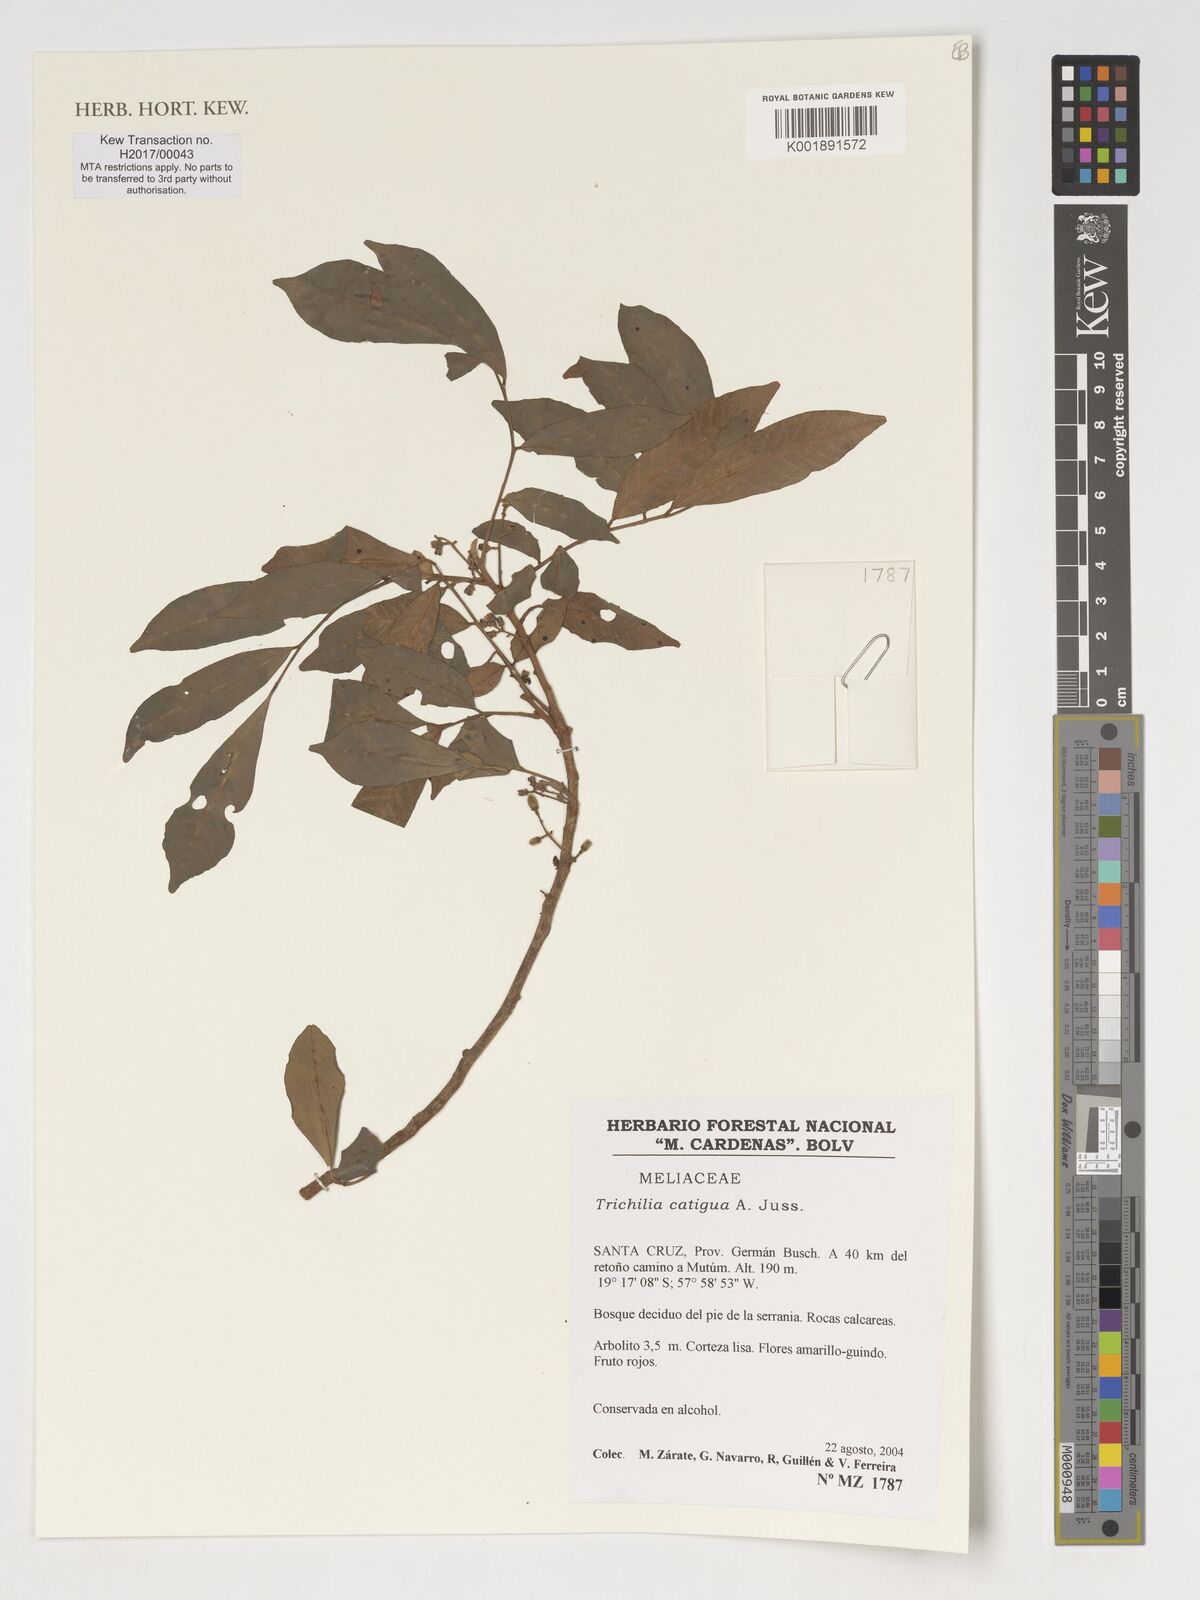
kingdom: Plantae
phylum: Tracheophyta
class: Magnoliopsida
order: Sapindales
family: Meliaceae
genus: Trichilia
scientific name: Trichilia catigua
